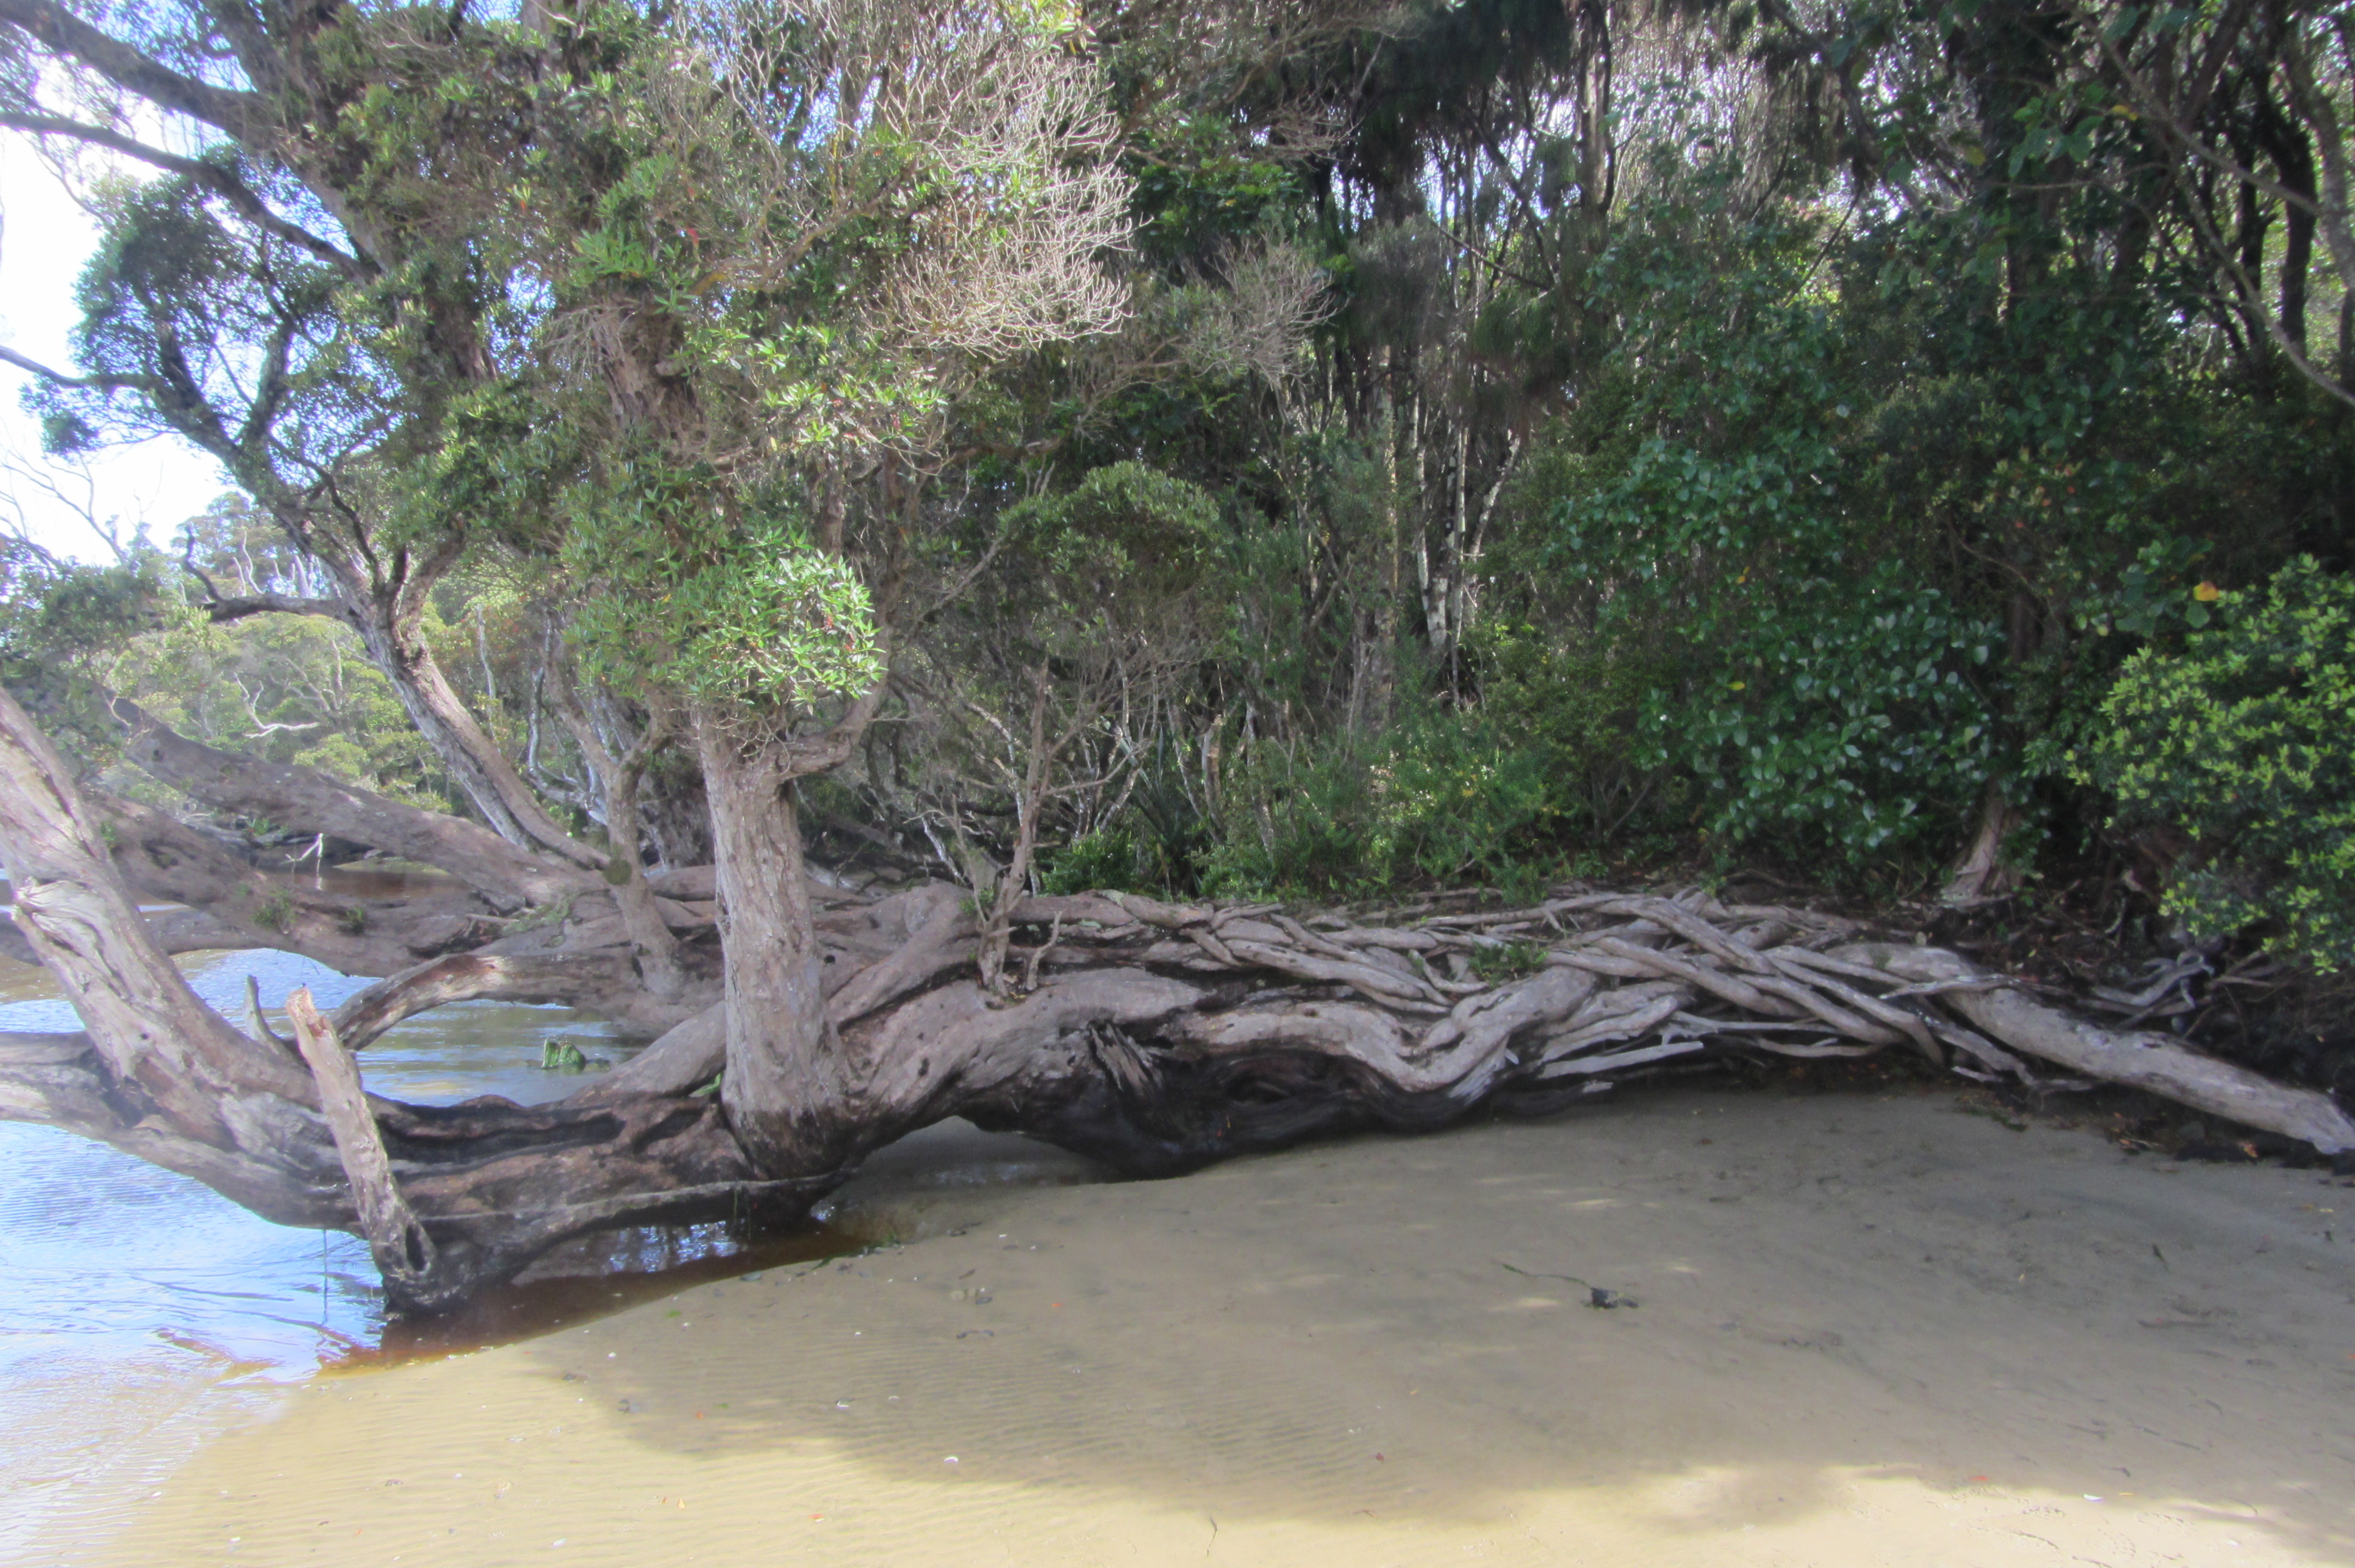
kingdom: Plantae
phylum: Tracheophyta
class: Polypodiopsida
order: Hymenophyllales
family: Hymenophyllaceae
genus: Hymenophyllum
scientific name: Hymenophyllum minimum
